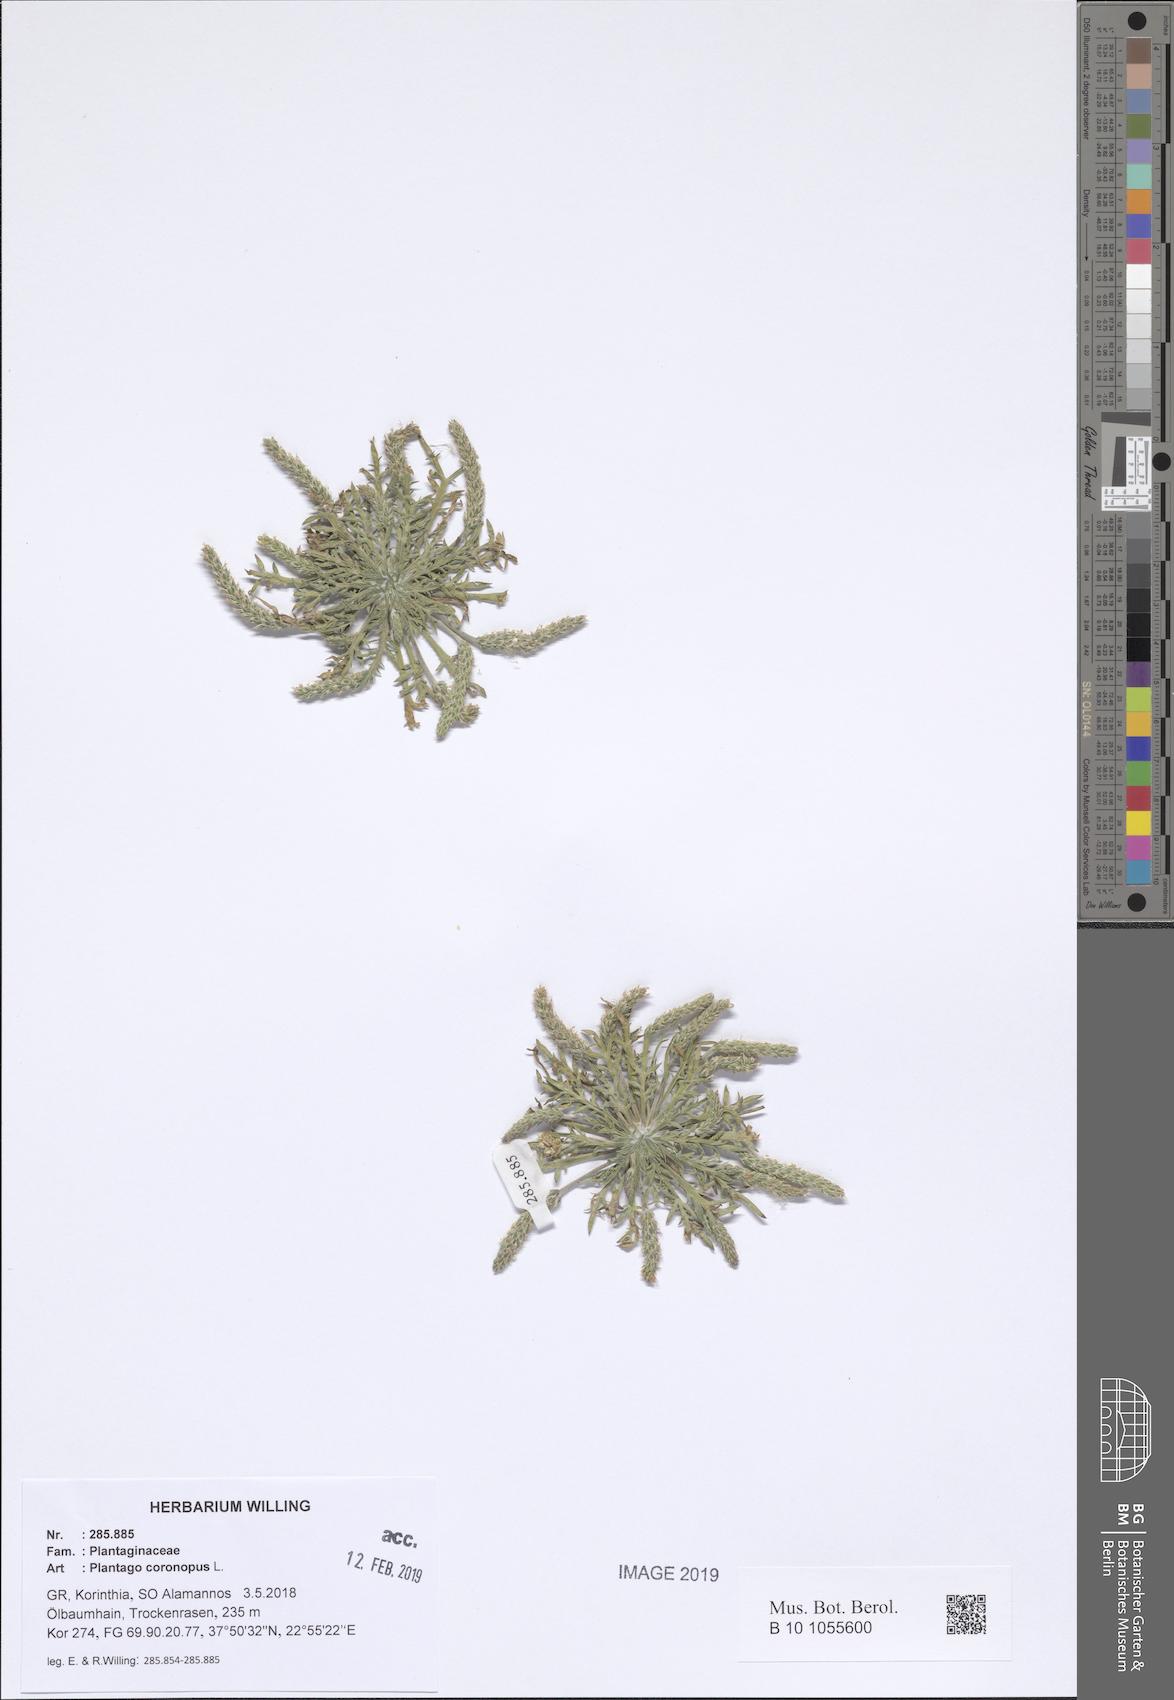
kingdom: Plantae
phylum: Tracheophyta
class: Magnoliopsida
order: Lamiales
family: Plantaginaceae
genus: Plantago
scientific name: Plantago coronopus
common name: Buck's-horn plantain
